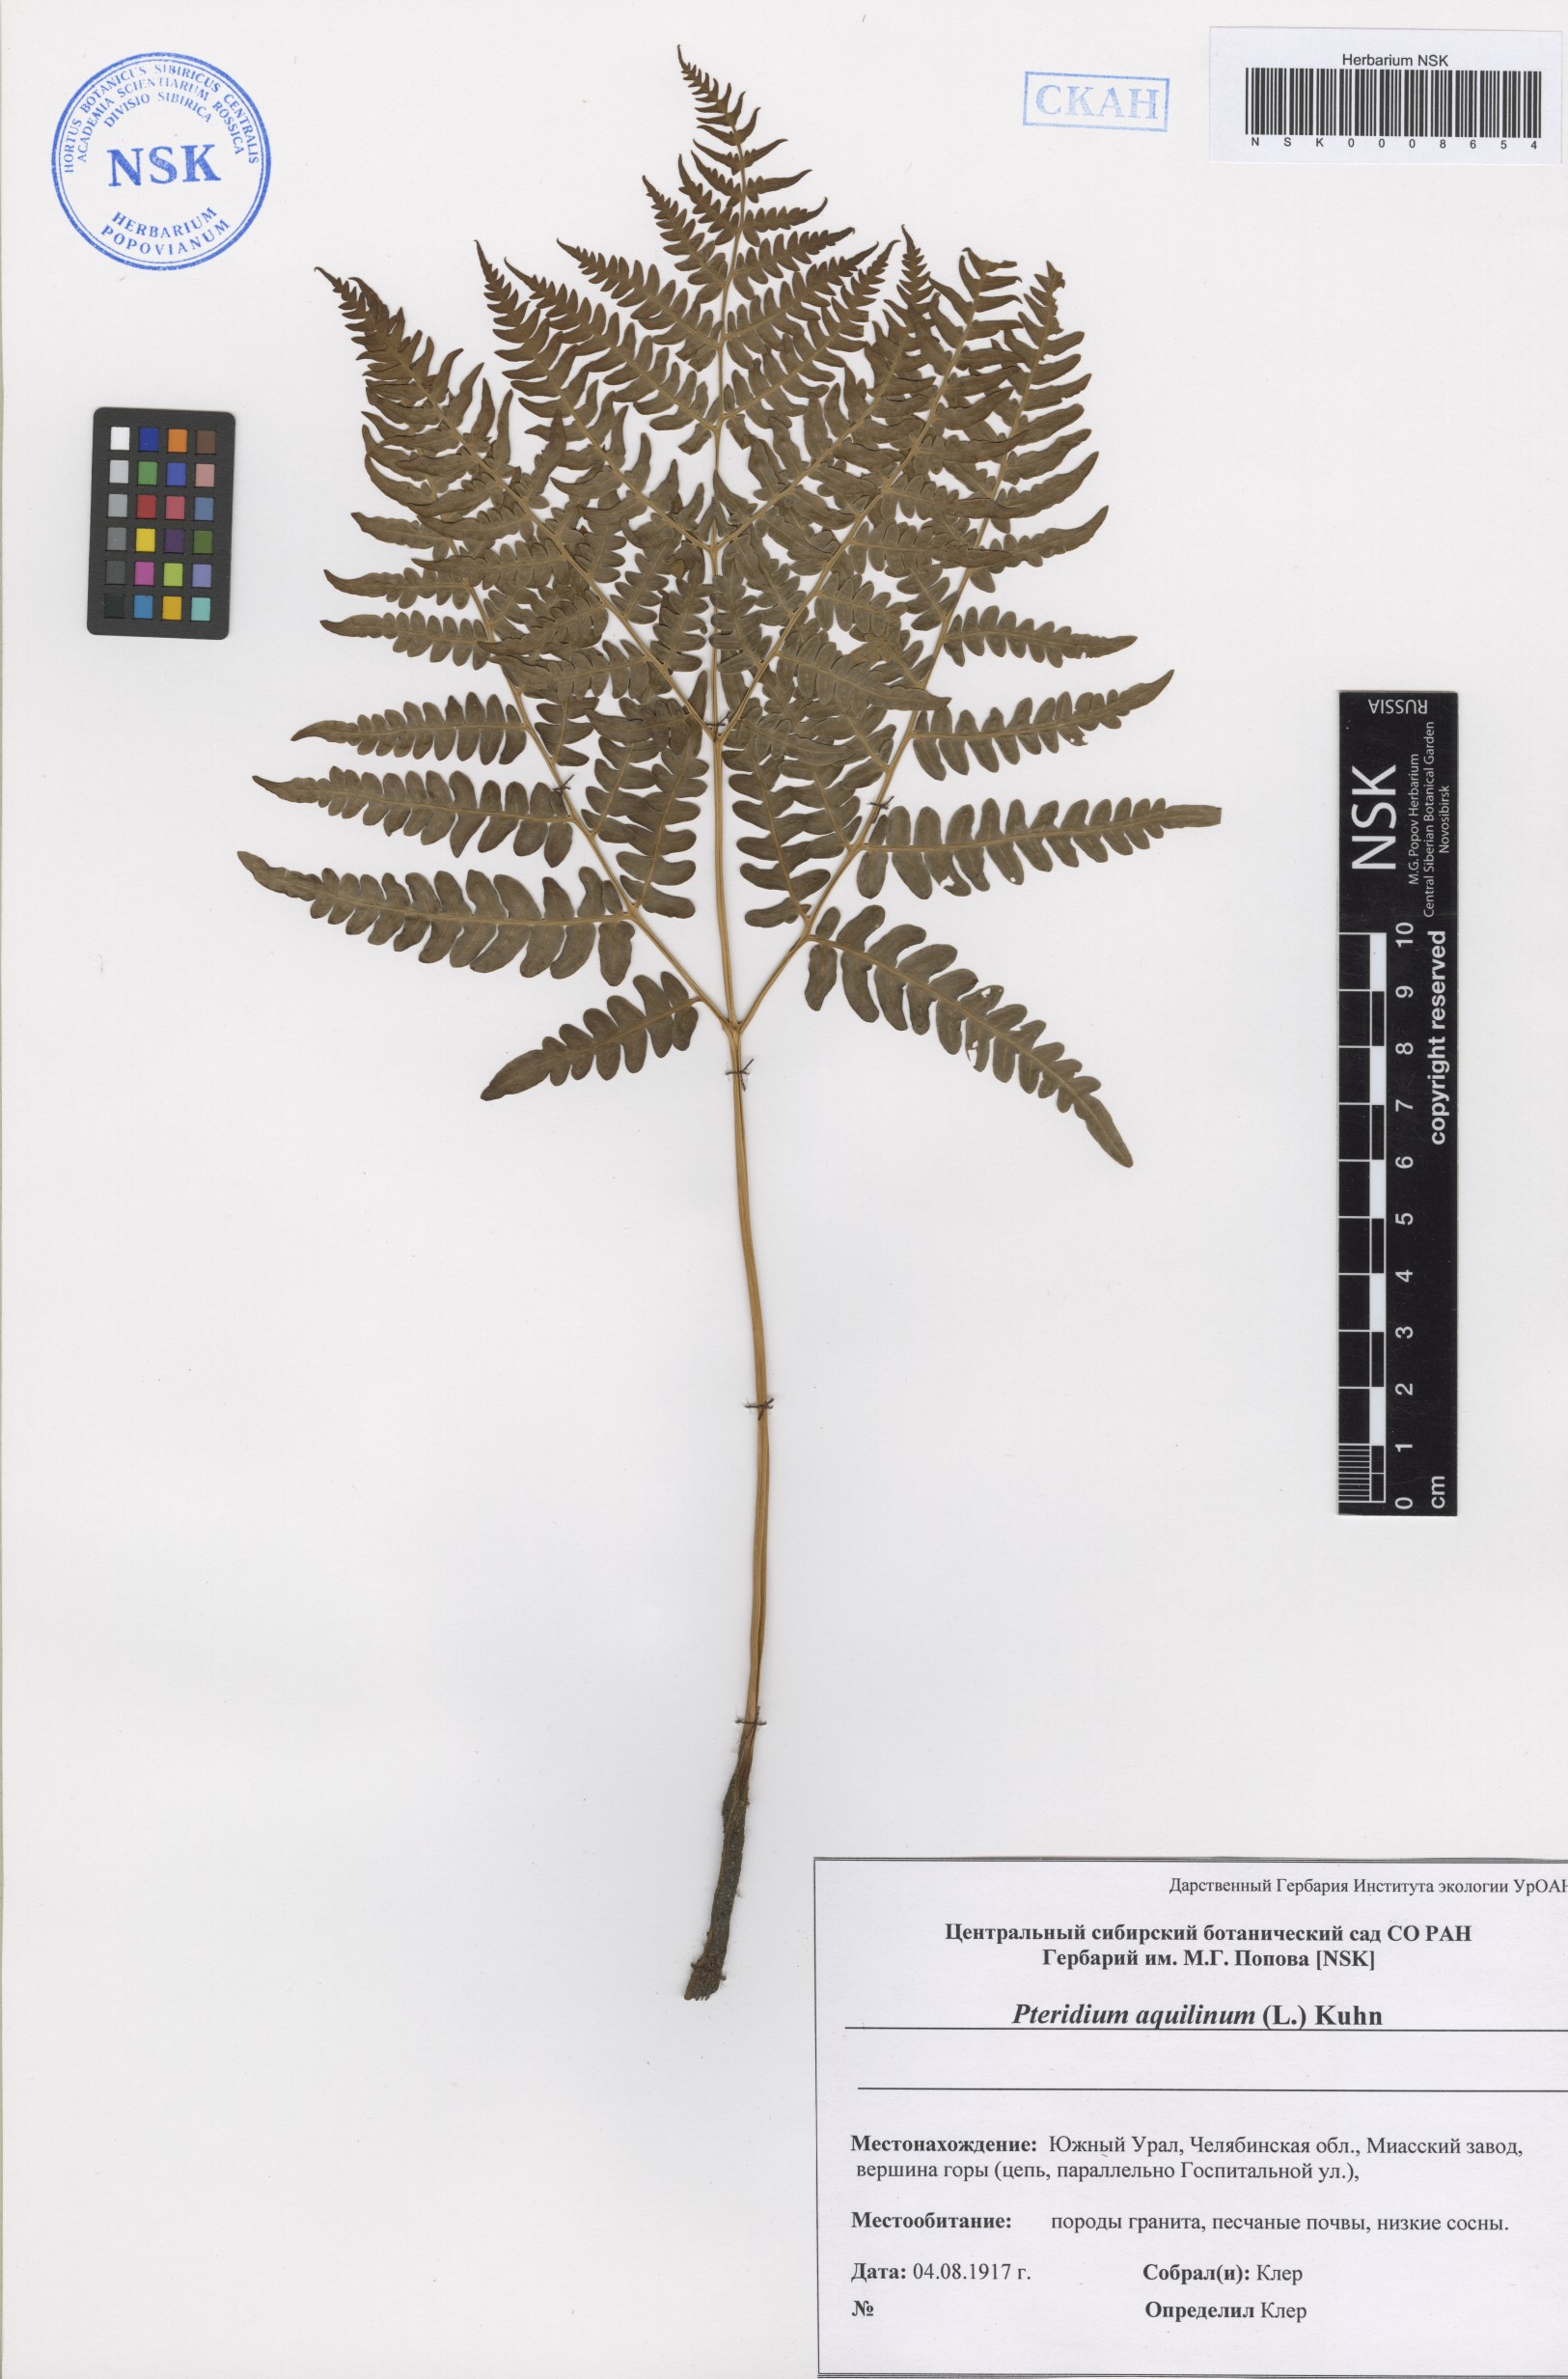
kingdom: Plantae
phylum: Tracheophyta
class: Polypodiopsida
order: Polypodiales
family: Dennstaedtiaceae
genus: Pteridium
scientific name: Pteridium aquilinum
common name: Bracken
